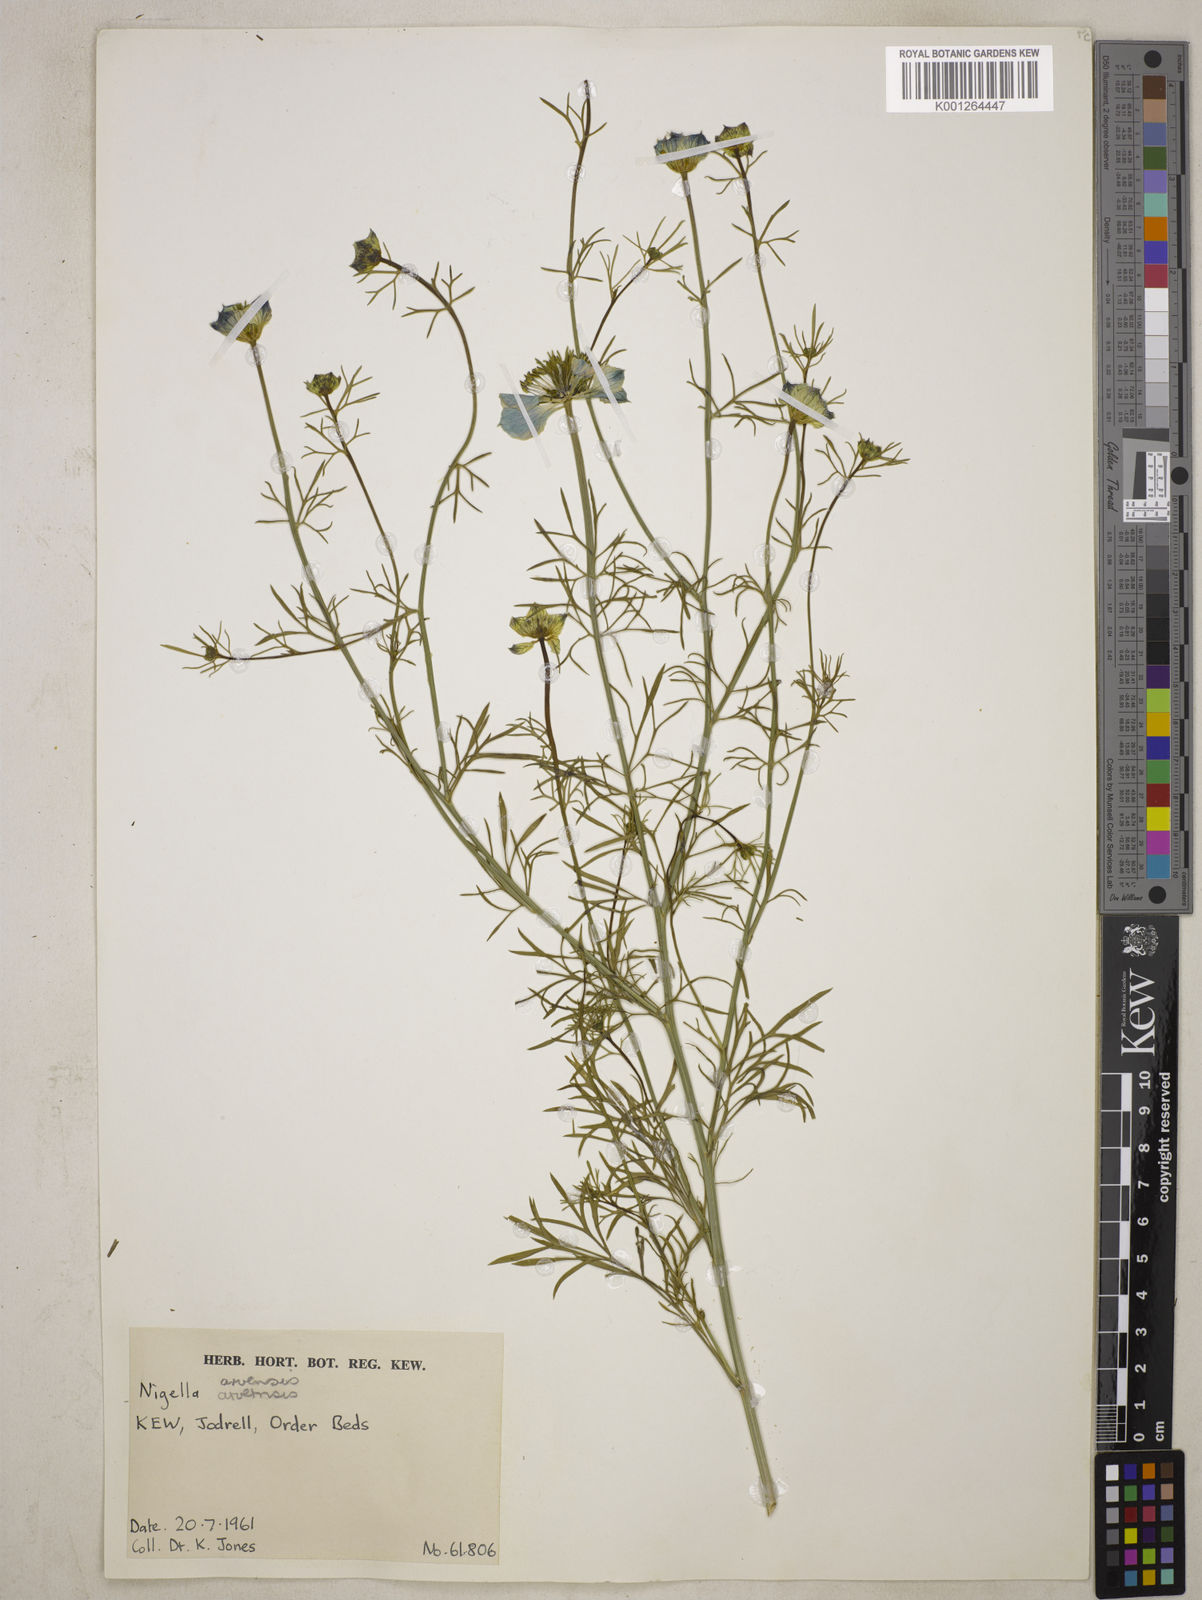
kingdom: Plantae
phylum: Tracheophyta
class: Magnoliopsida
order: Ranunculales
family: Ranunculaceae
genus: Nigella
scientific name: Nigella arvensis
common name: Wild fennel-flower
